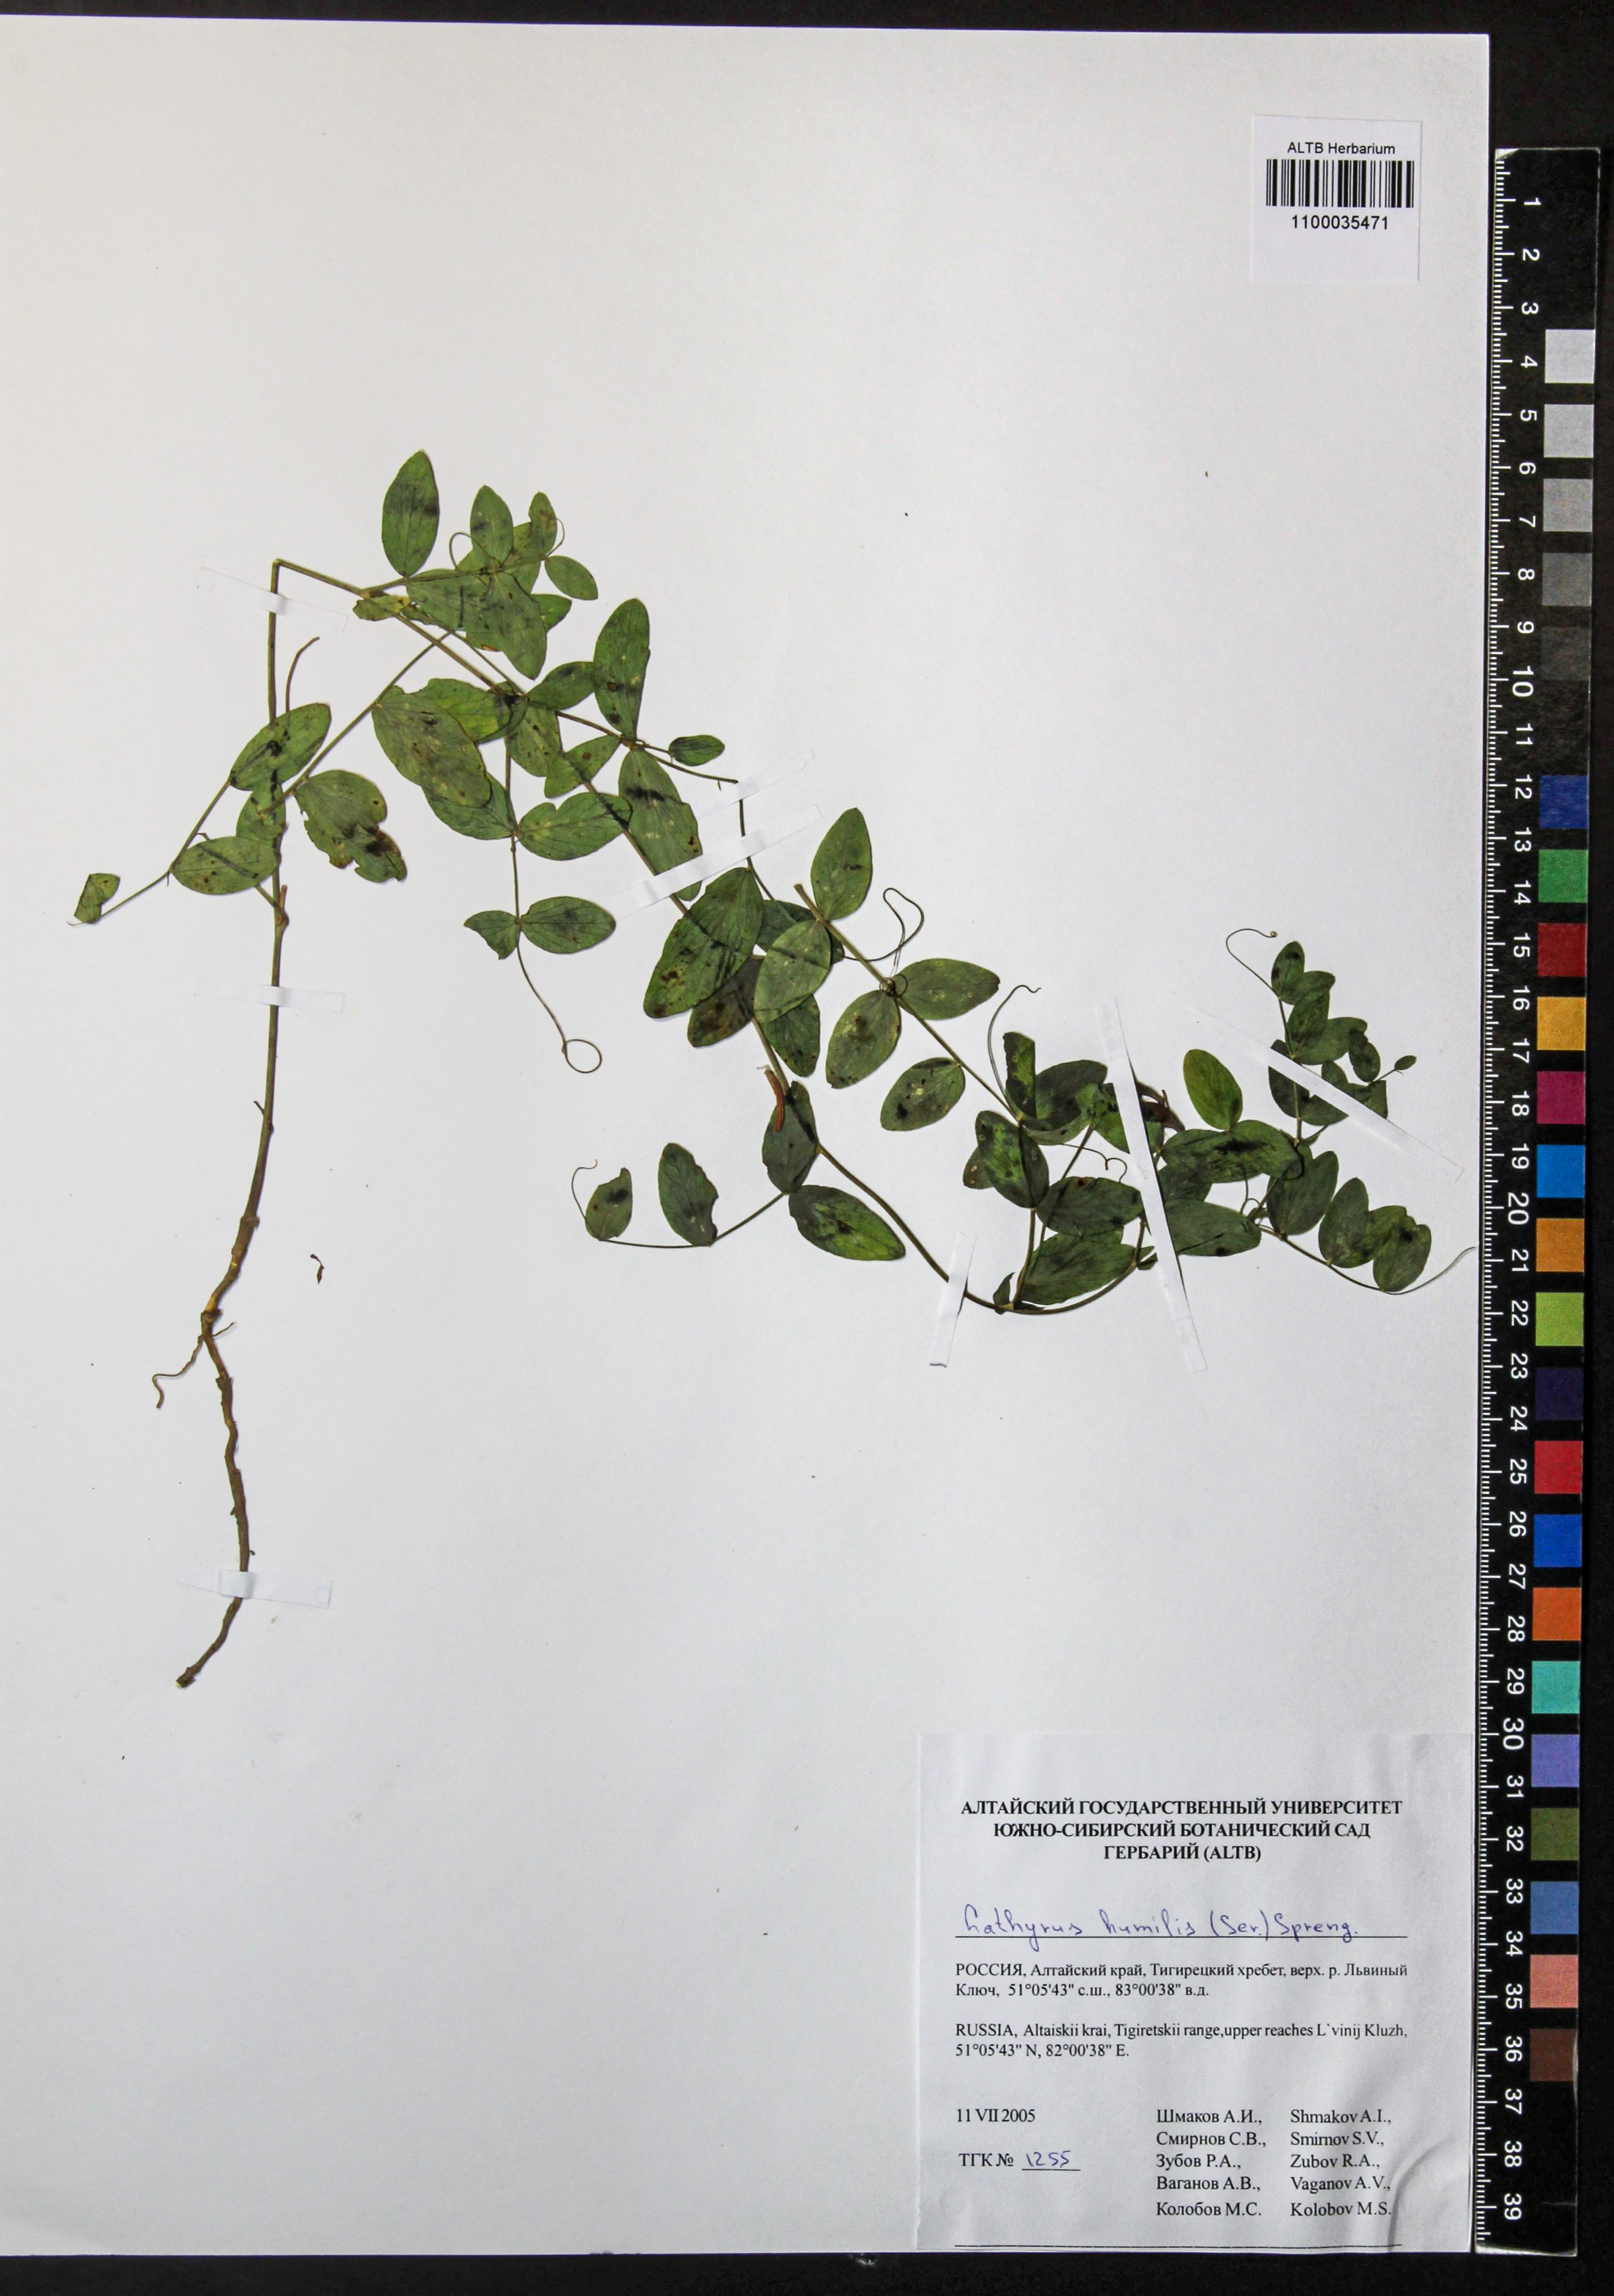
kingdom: Plantae
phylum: Tracheophyta
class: Magnoliopsida
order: Fabales
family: Fabaceae
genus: Lathyrus
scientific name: Lathyrus humilis
